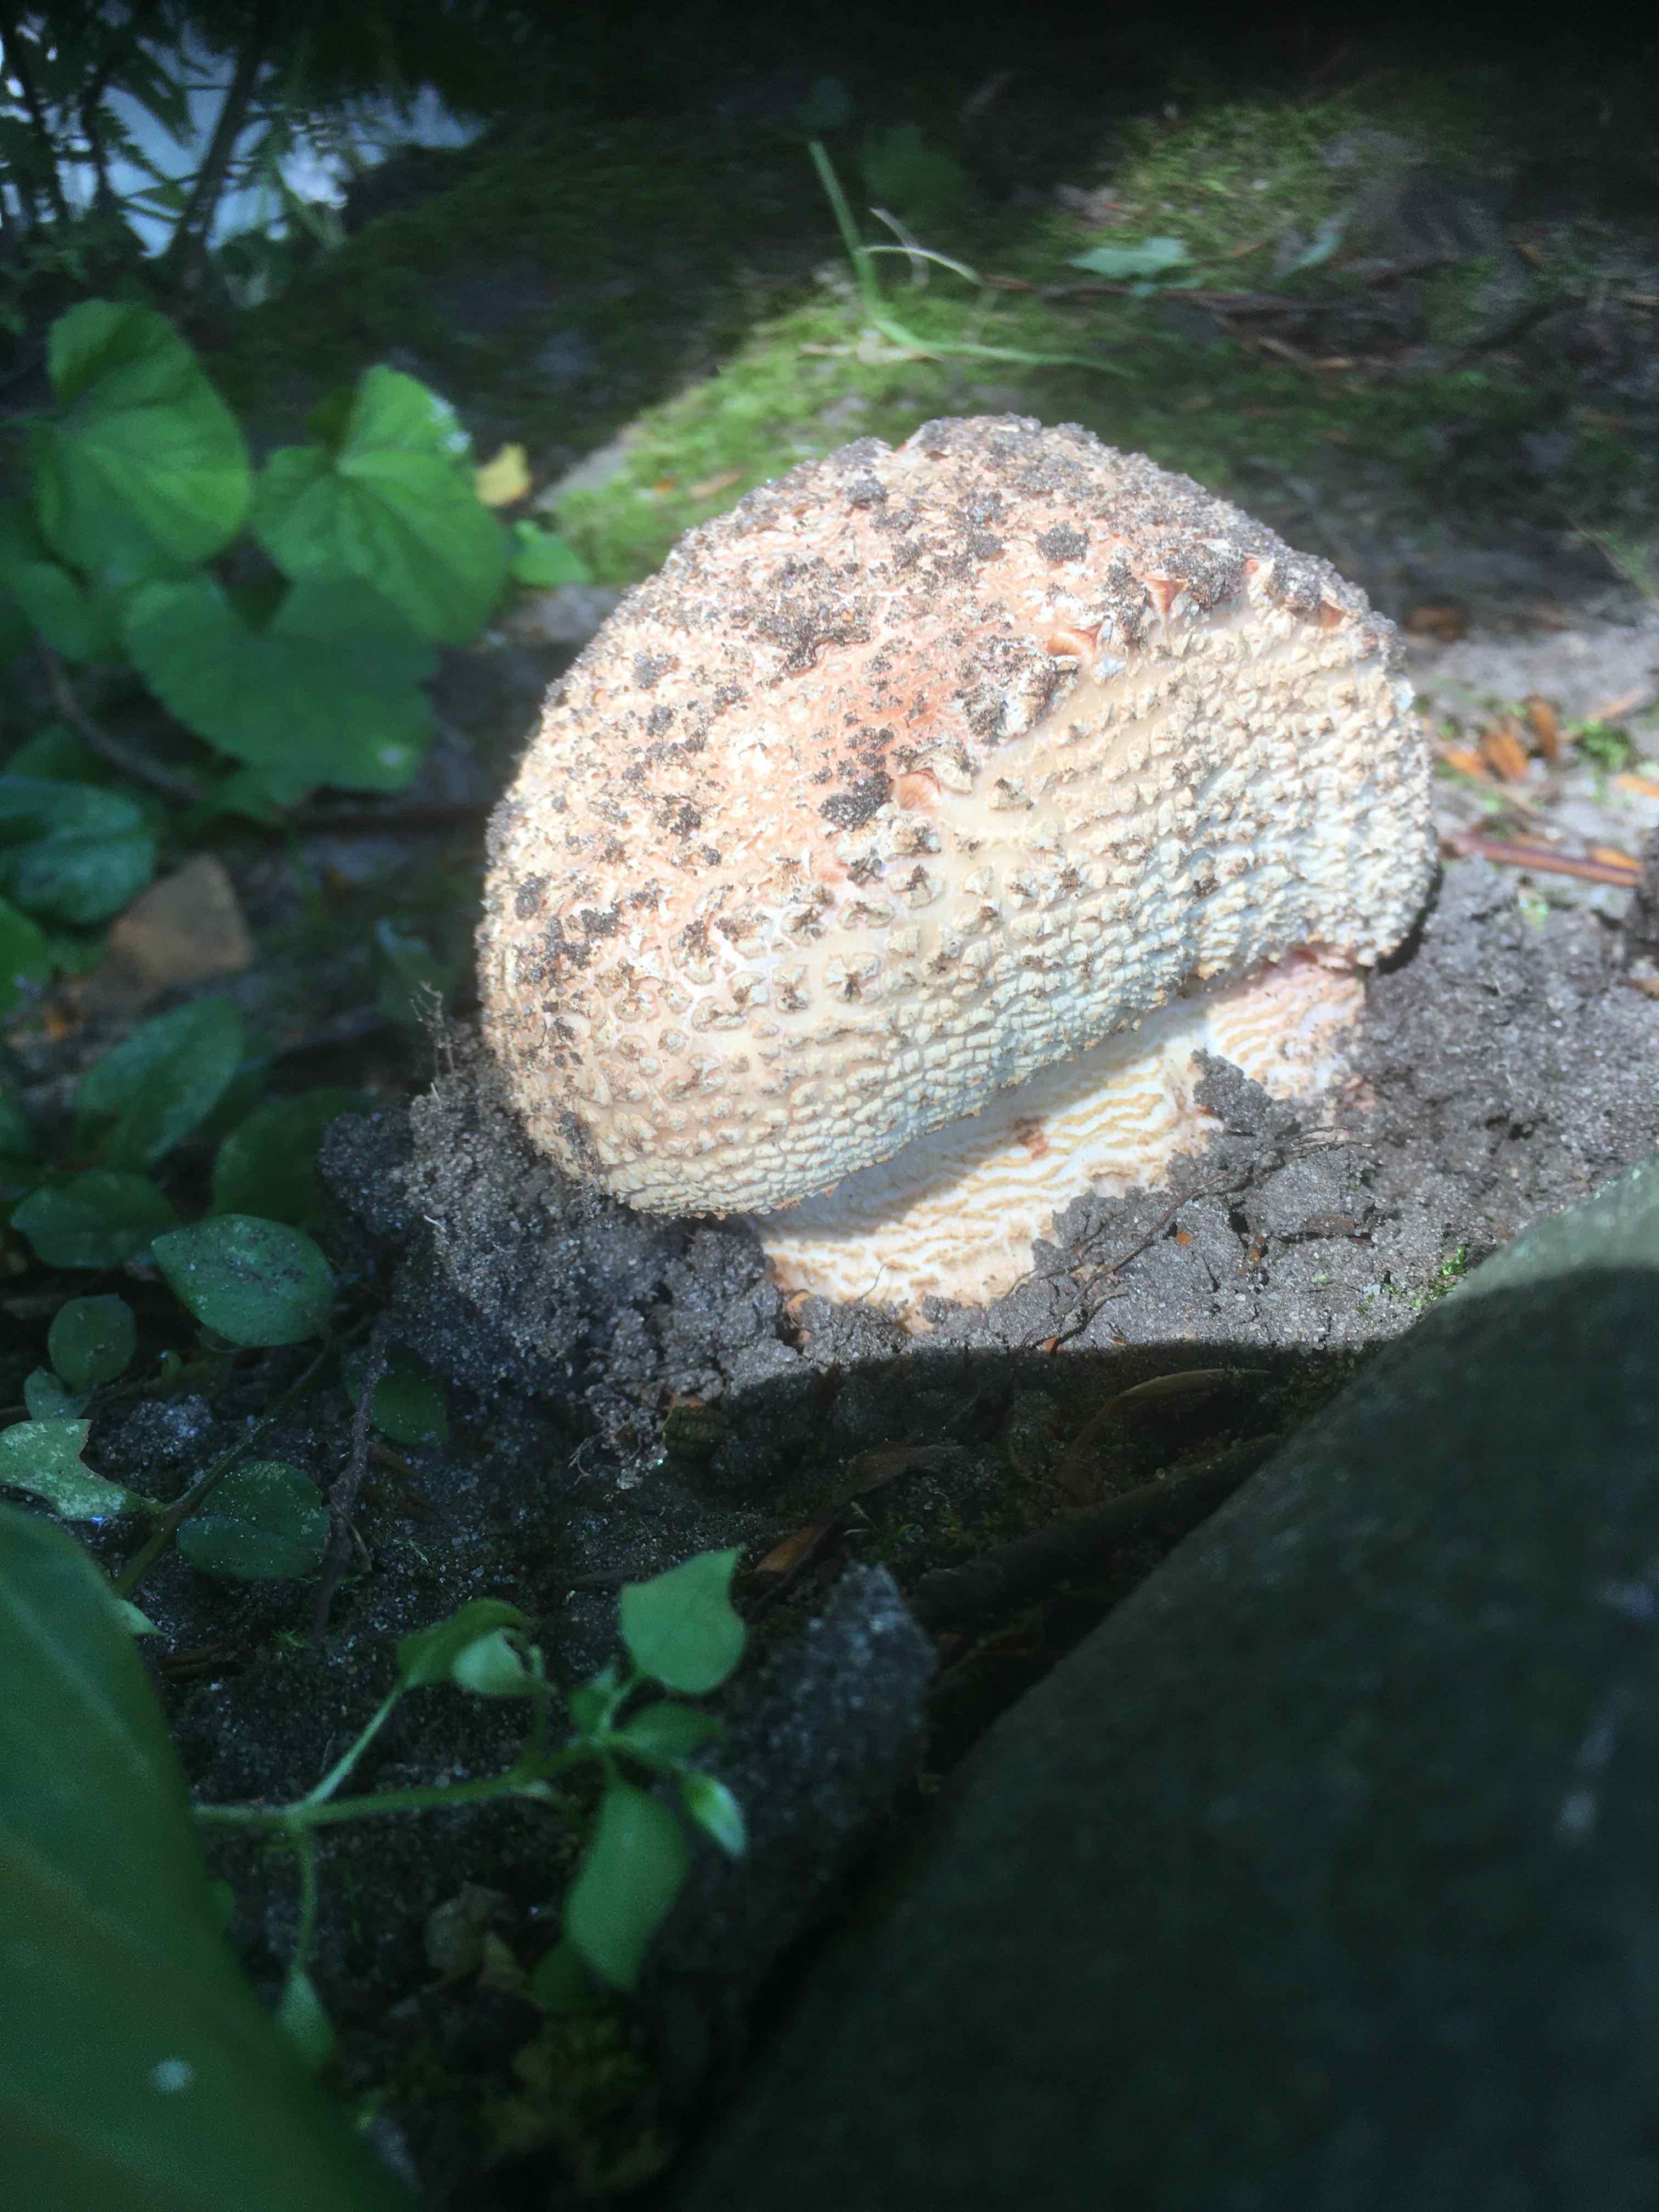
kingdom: Fungi
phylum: Basidiomycota
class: Agaricomycetes
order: Agaricales
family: Amanitaceae
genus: Amanita
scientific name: Amanita rubescens
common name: rødmende fluesvamp
